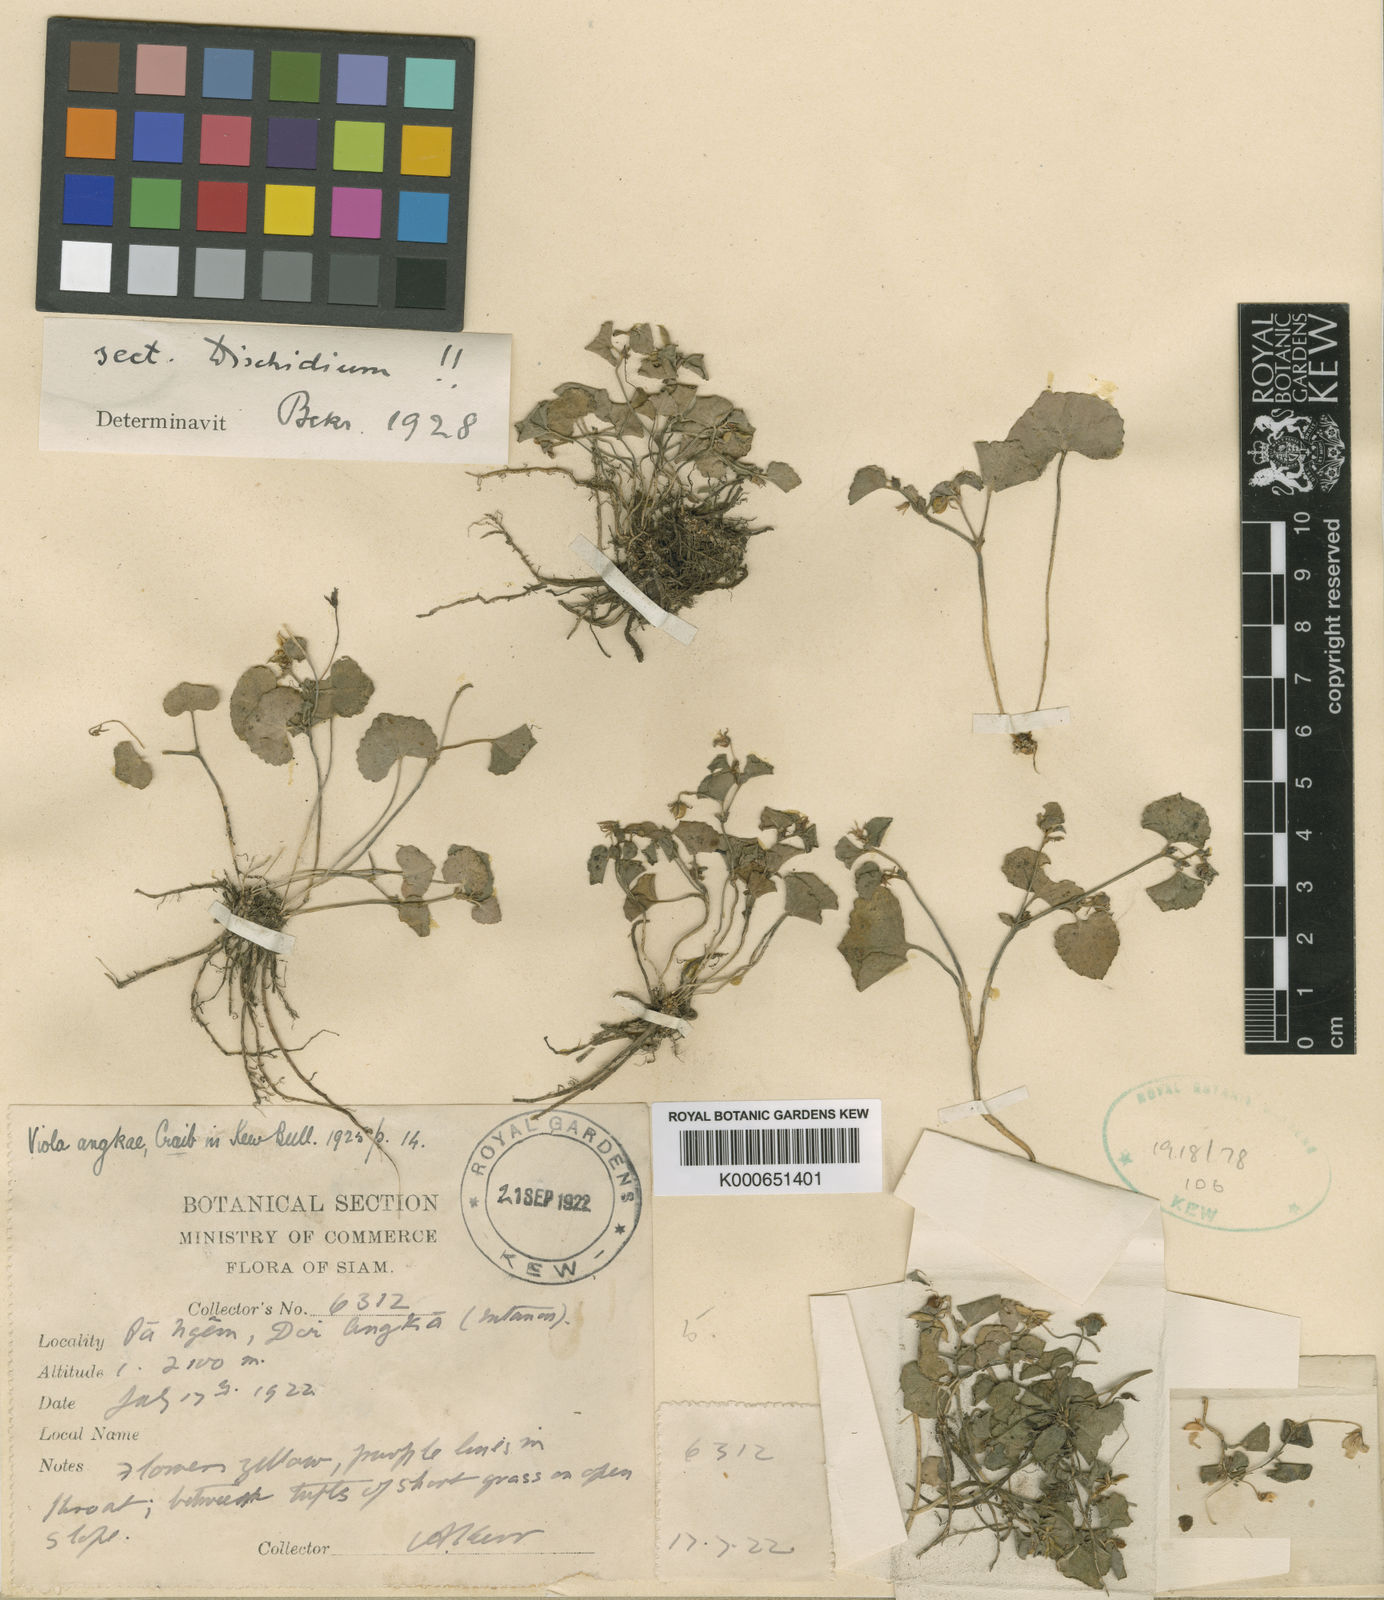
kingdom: Plantae
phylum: Tracheophyta
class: Magnoliopsida
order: Malpighiales
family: Violaceae
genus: Viola
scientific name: Viola angkae
